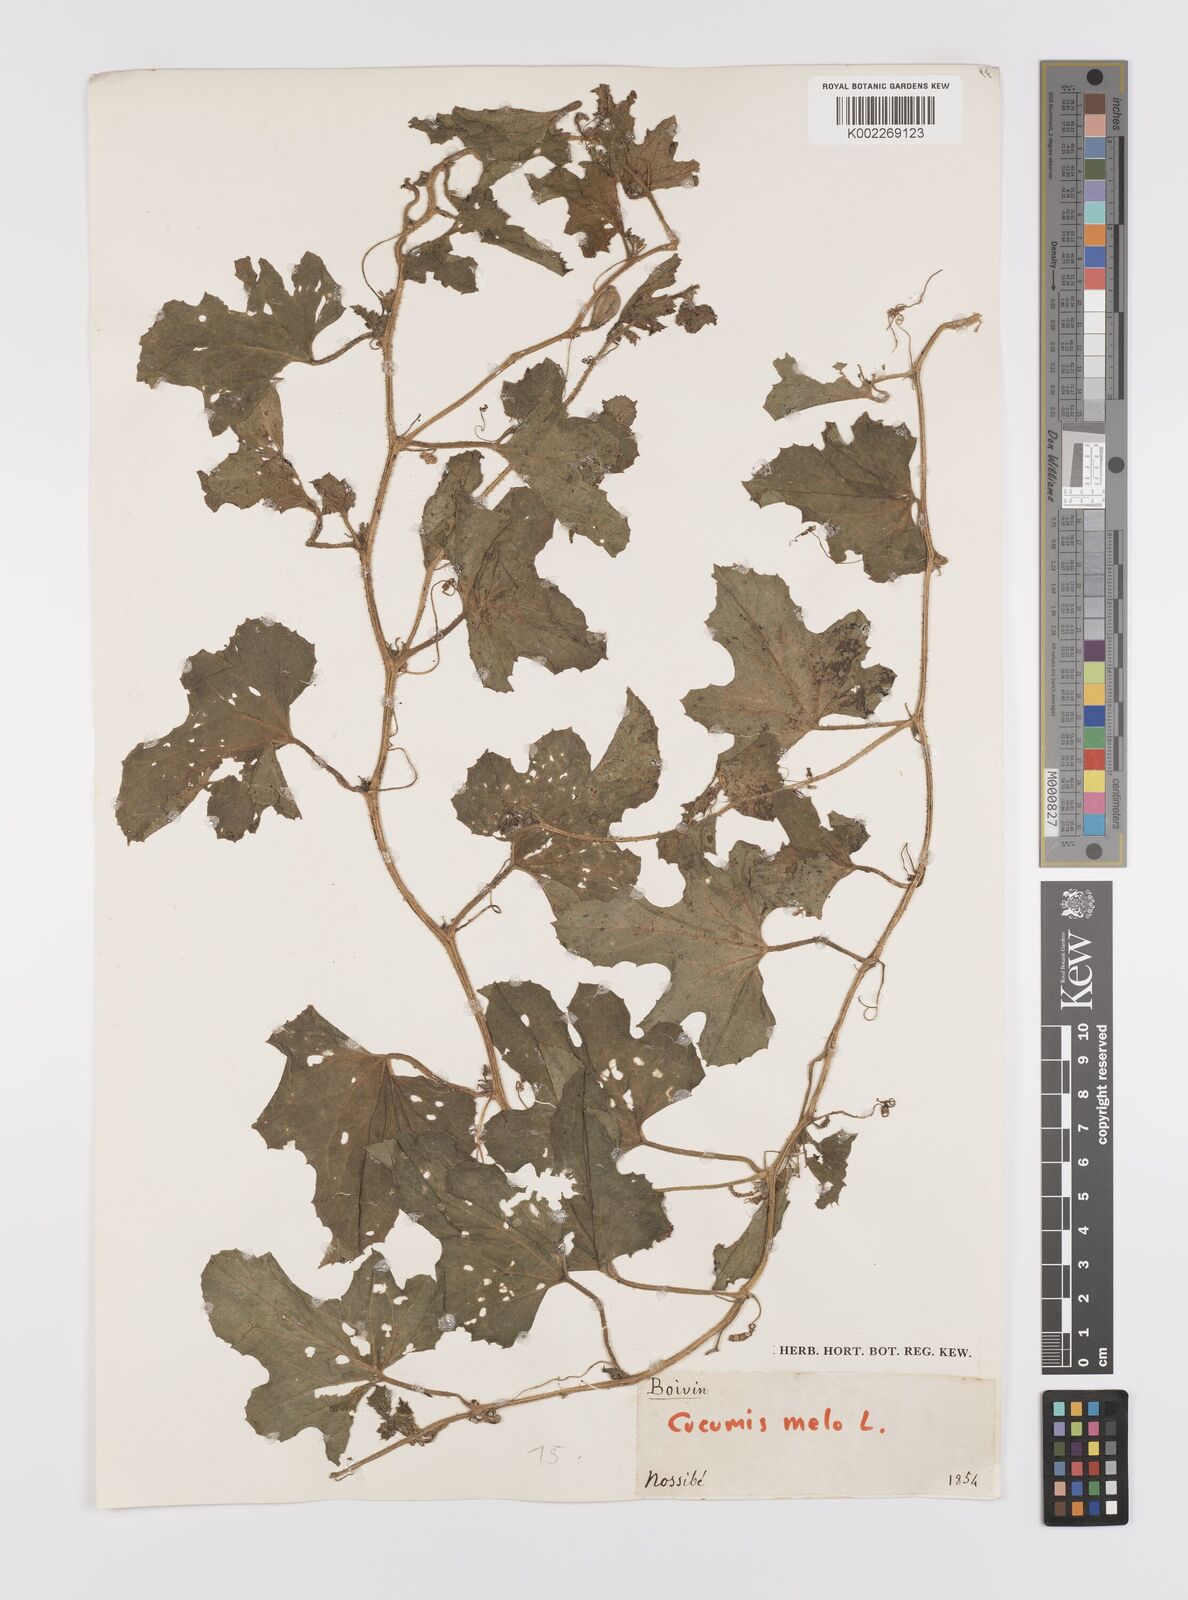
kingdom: Plantae
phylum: Tracheophyta
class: Magnoliopsida
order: Cucurbitales
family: Cucurbitaceae
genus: Cucumis
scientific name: Cucumis melo
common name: Melon
